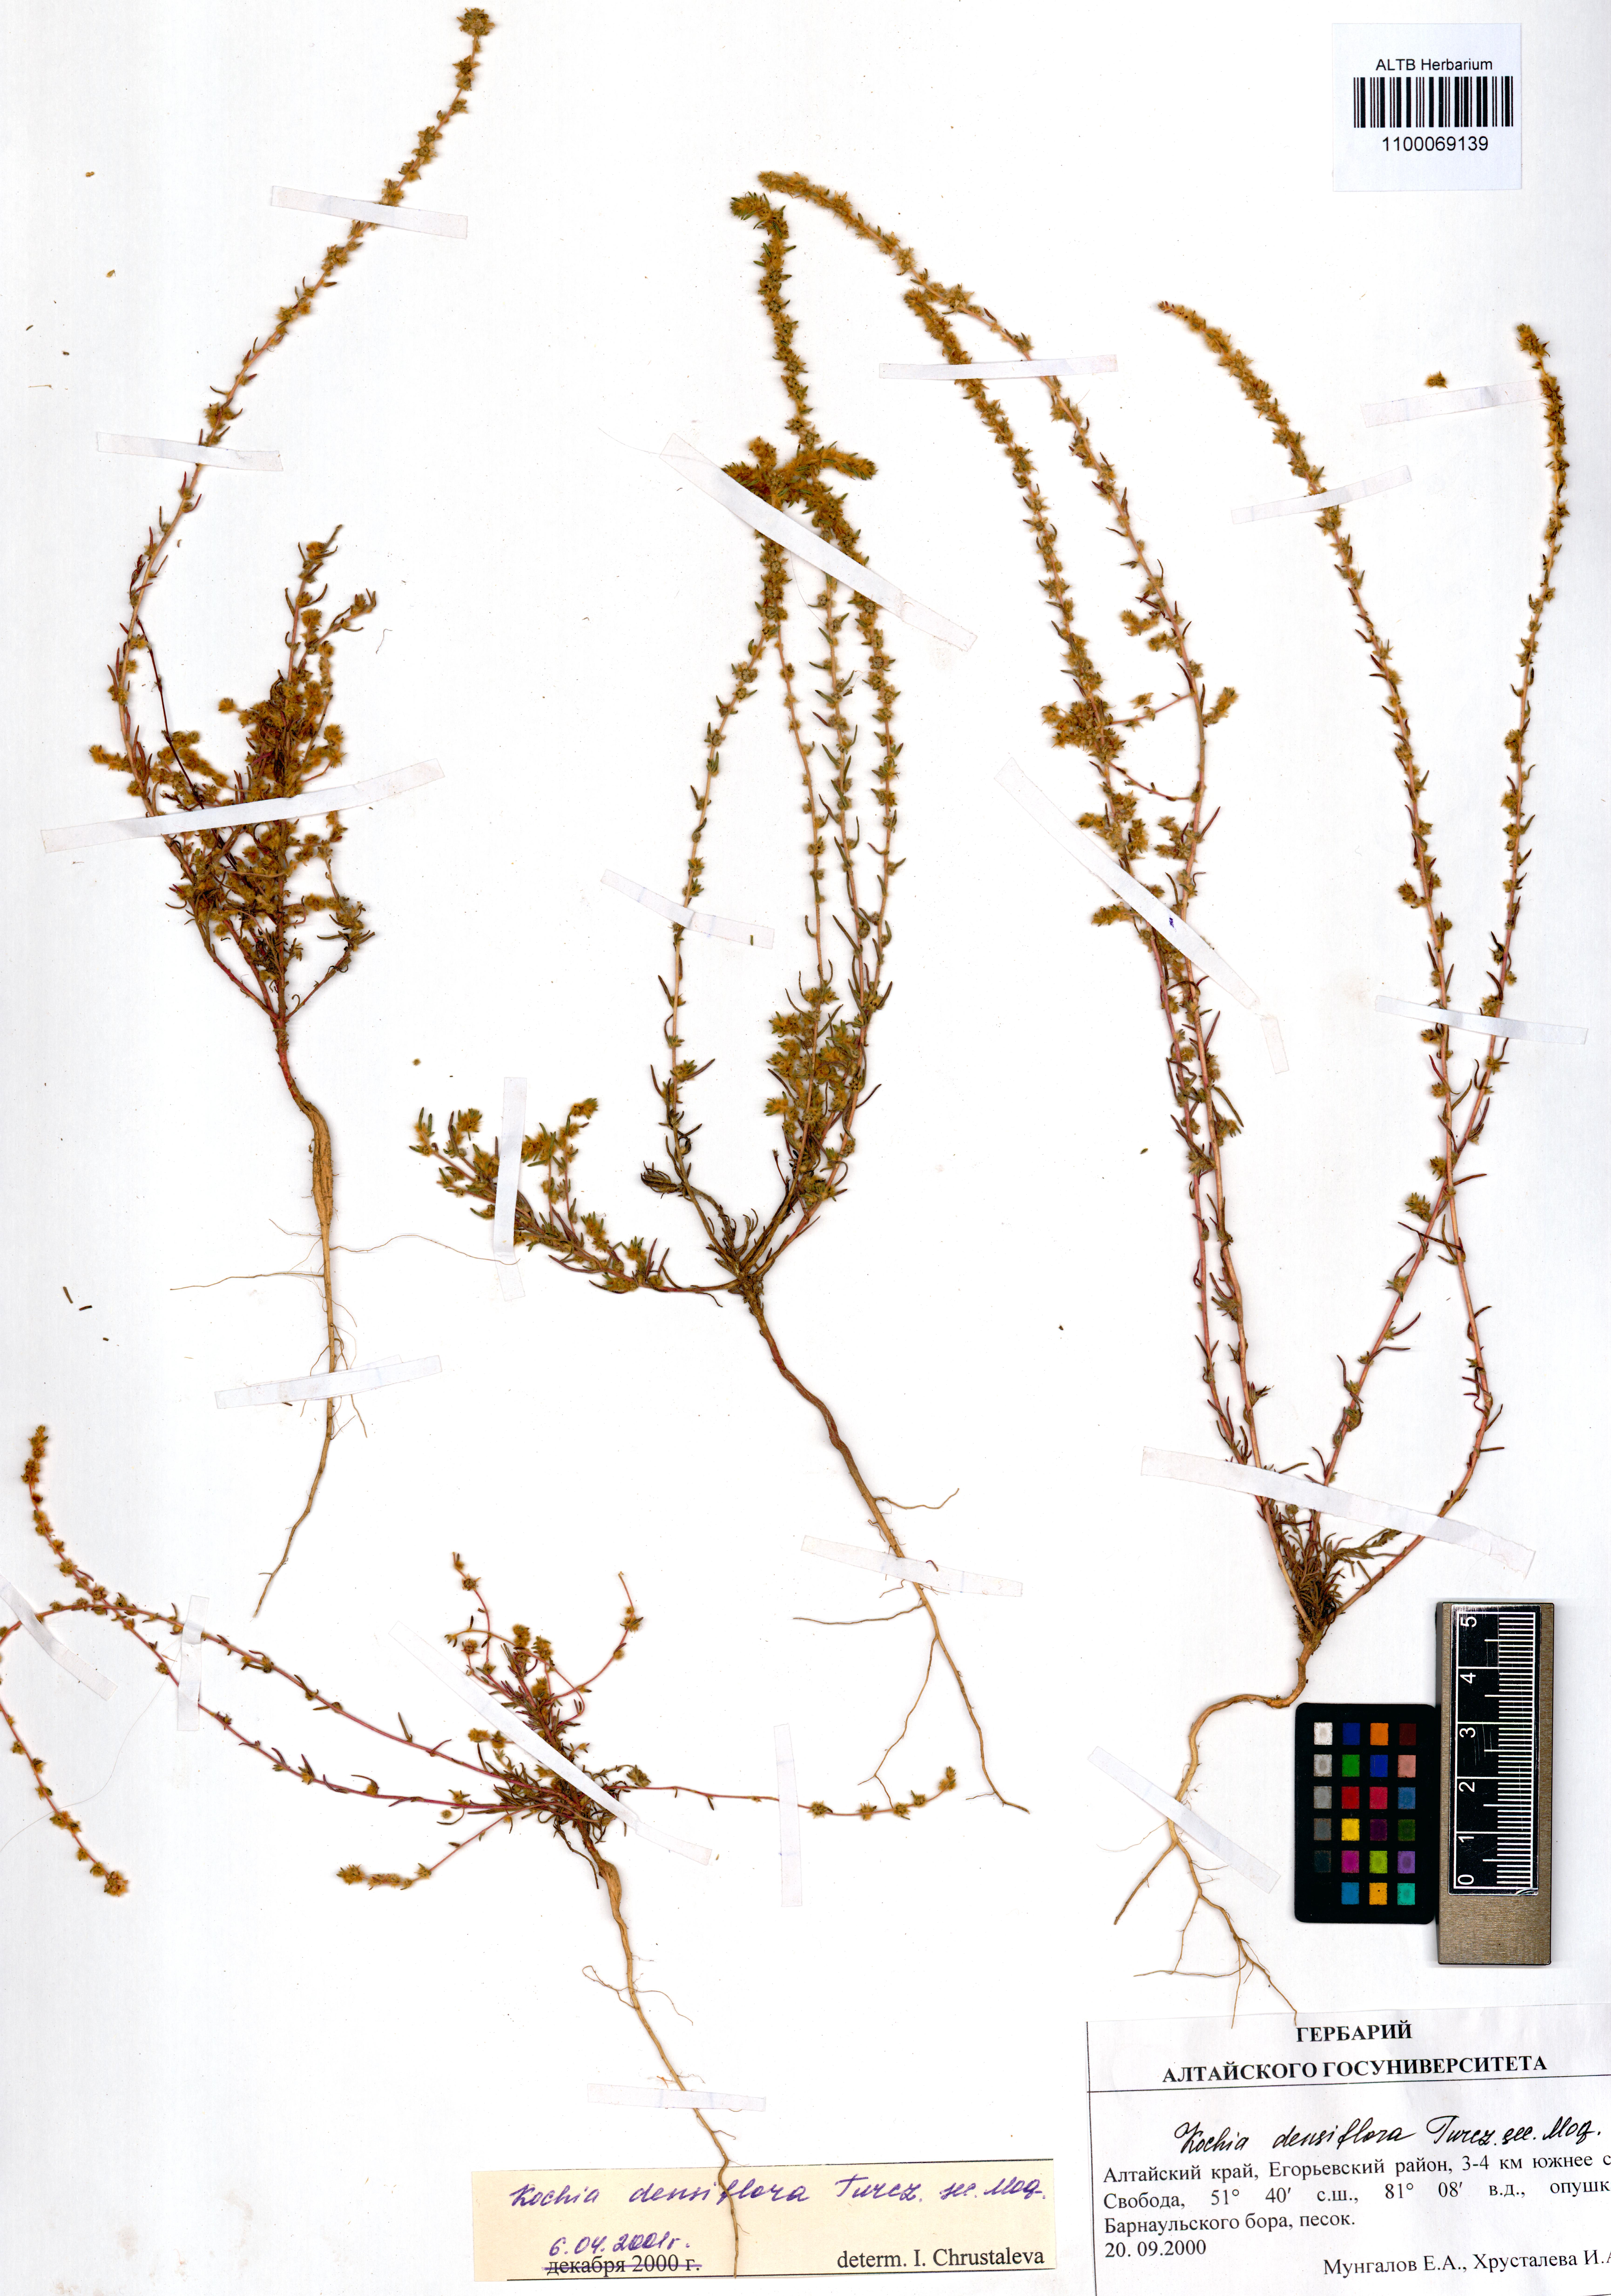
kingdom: Plantae
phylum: Tracheophyta
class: Magnoliopsida
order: Caryophyllales
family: Amaranthaceae
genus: Bassia
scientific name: Bassia scoparia
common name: Belvedere
